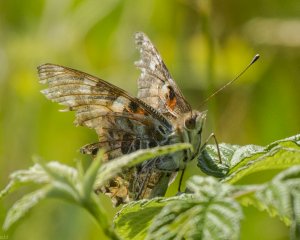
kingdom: Animalia
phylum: Arthropoda
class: Insecta
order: Lepidoptera
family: Nymphalidae
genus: Vanessa
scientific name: Vanessa cardui
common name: Painted Lady
